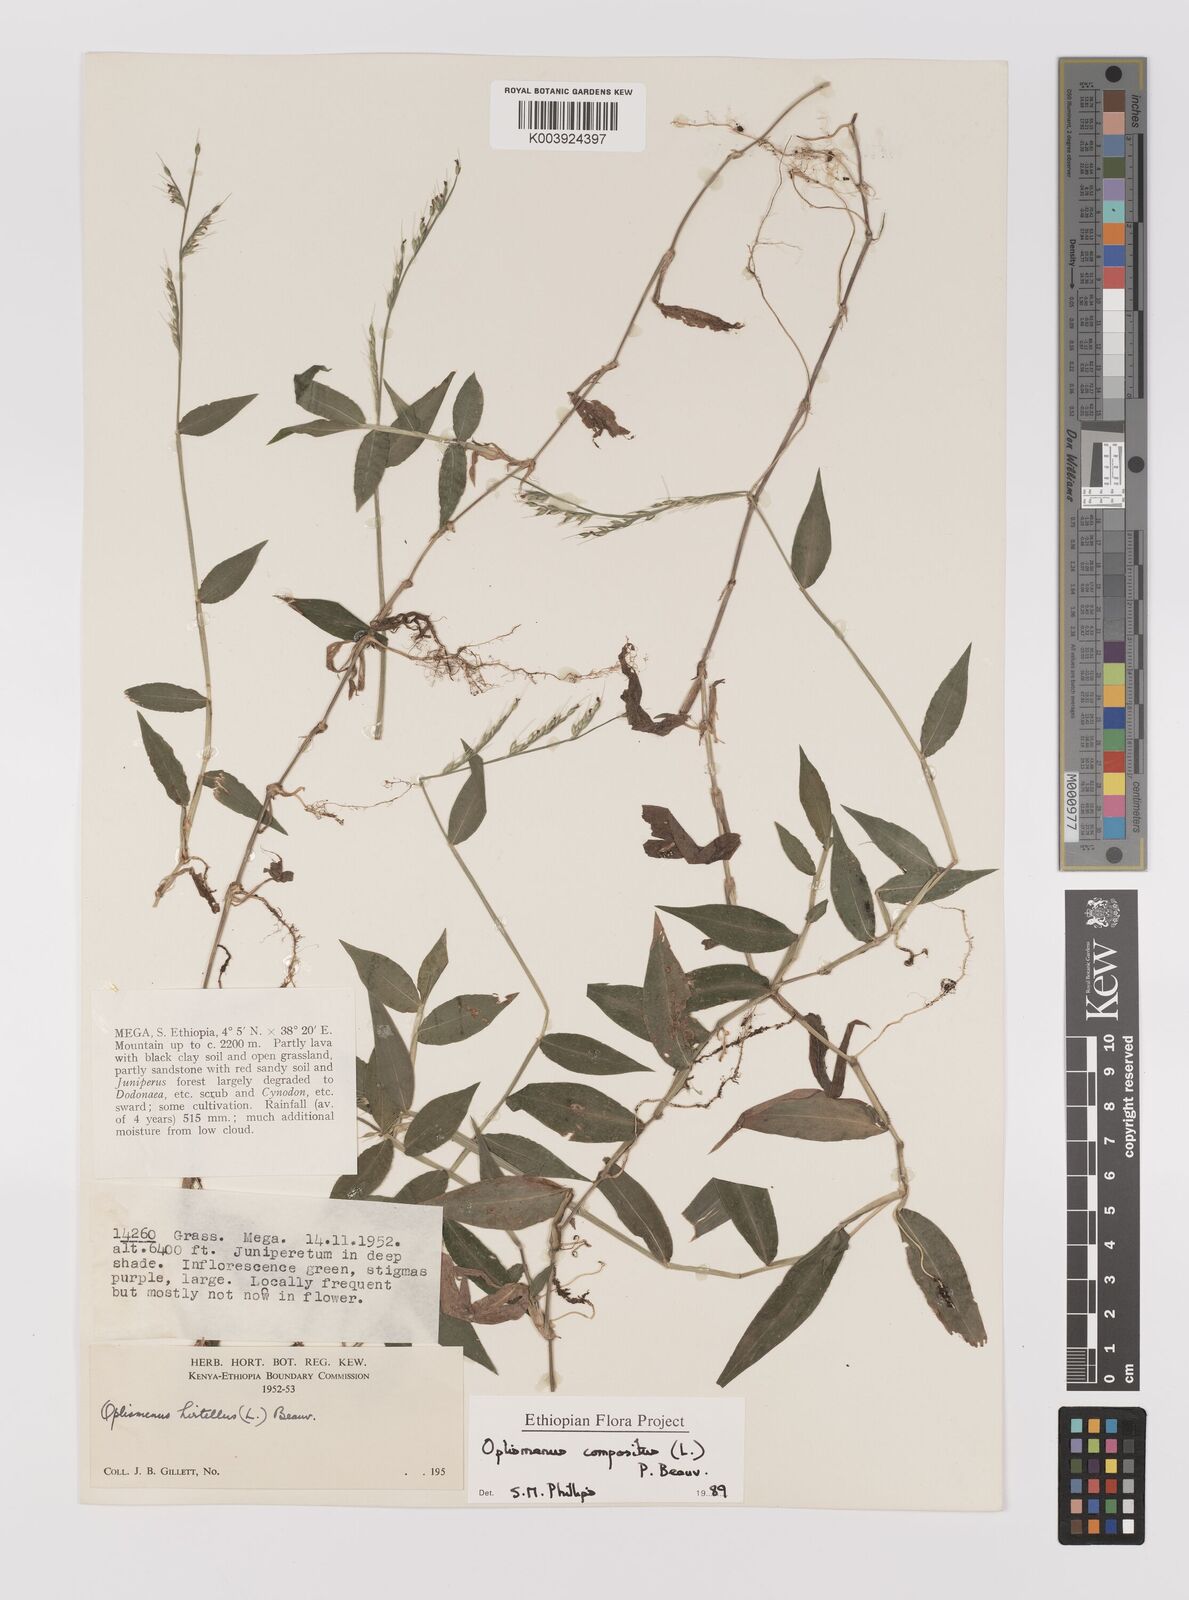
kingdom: Plantae
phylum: Tracheophyta
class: Liliopsida
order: Poales
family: Poaceae
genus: Oplismenus
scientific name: Oplismenus compositus
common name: Running mountain grass
